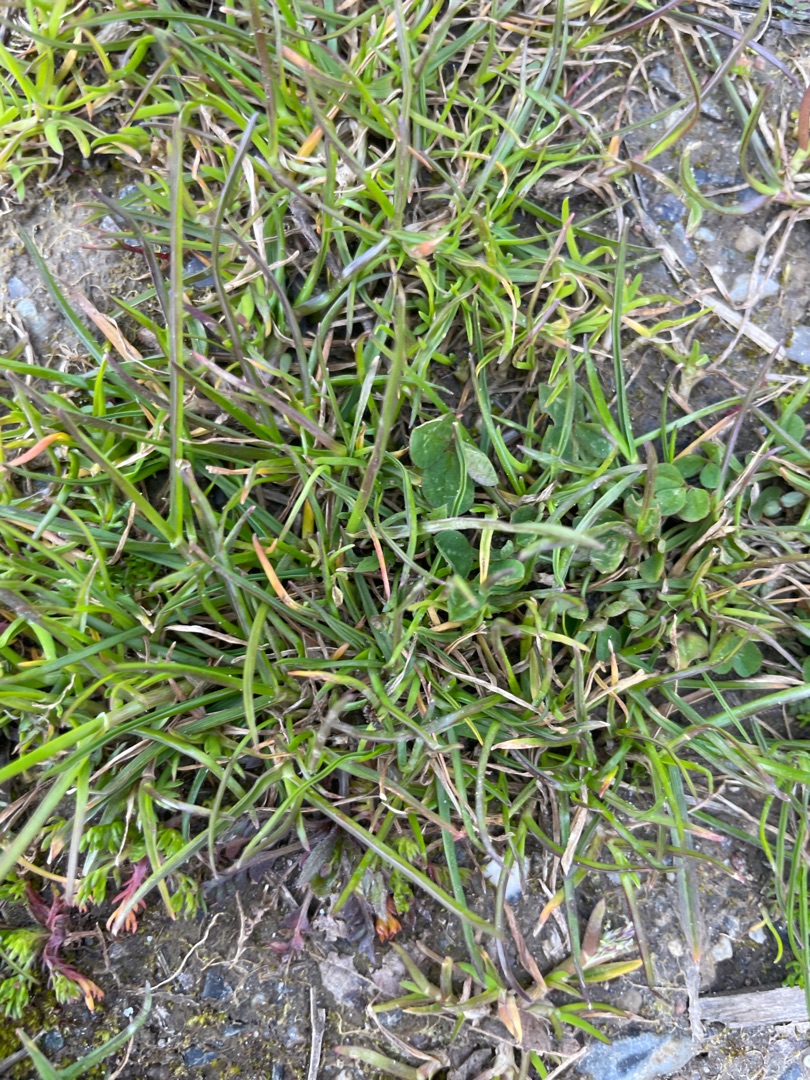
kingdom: Plantae
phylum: Tracheophyta
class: Liliopsida
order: Poales
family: Poaceae
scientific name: Poaceae
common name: Græsfamilien
